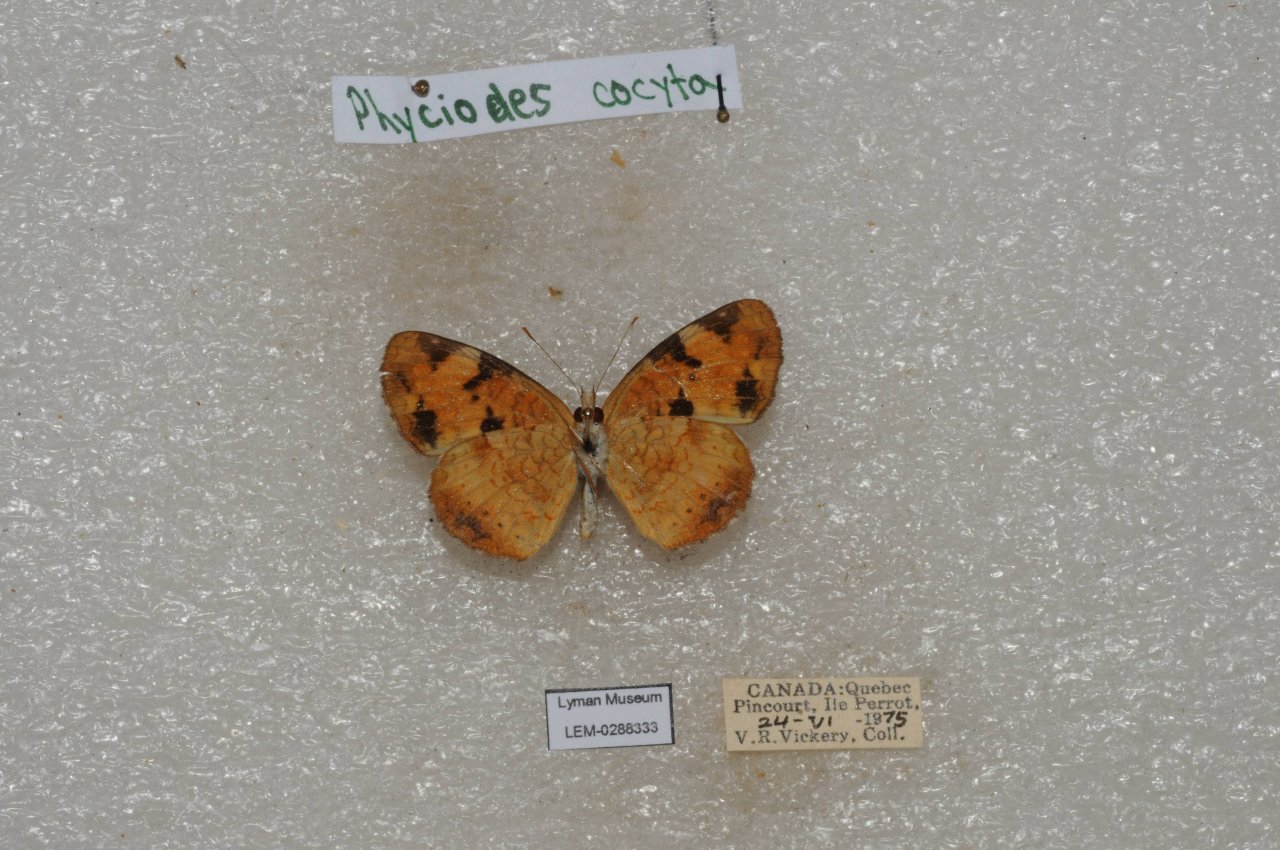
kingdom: Animalia
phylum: Arthropoda
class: Insecta
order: Lepidoptera
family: Nymphalidae
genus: Phyciodes
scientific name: Phyciodes tharos
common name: Northern Crescent
